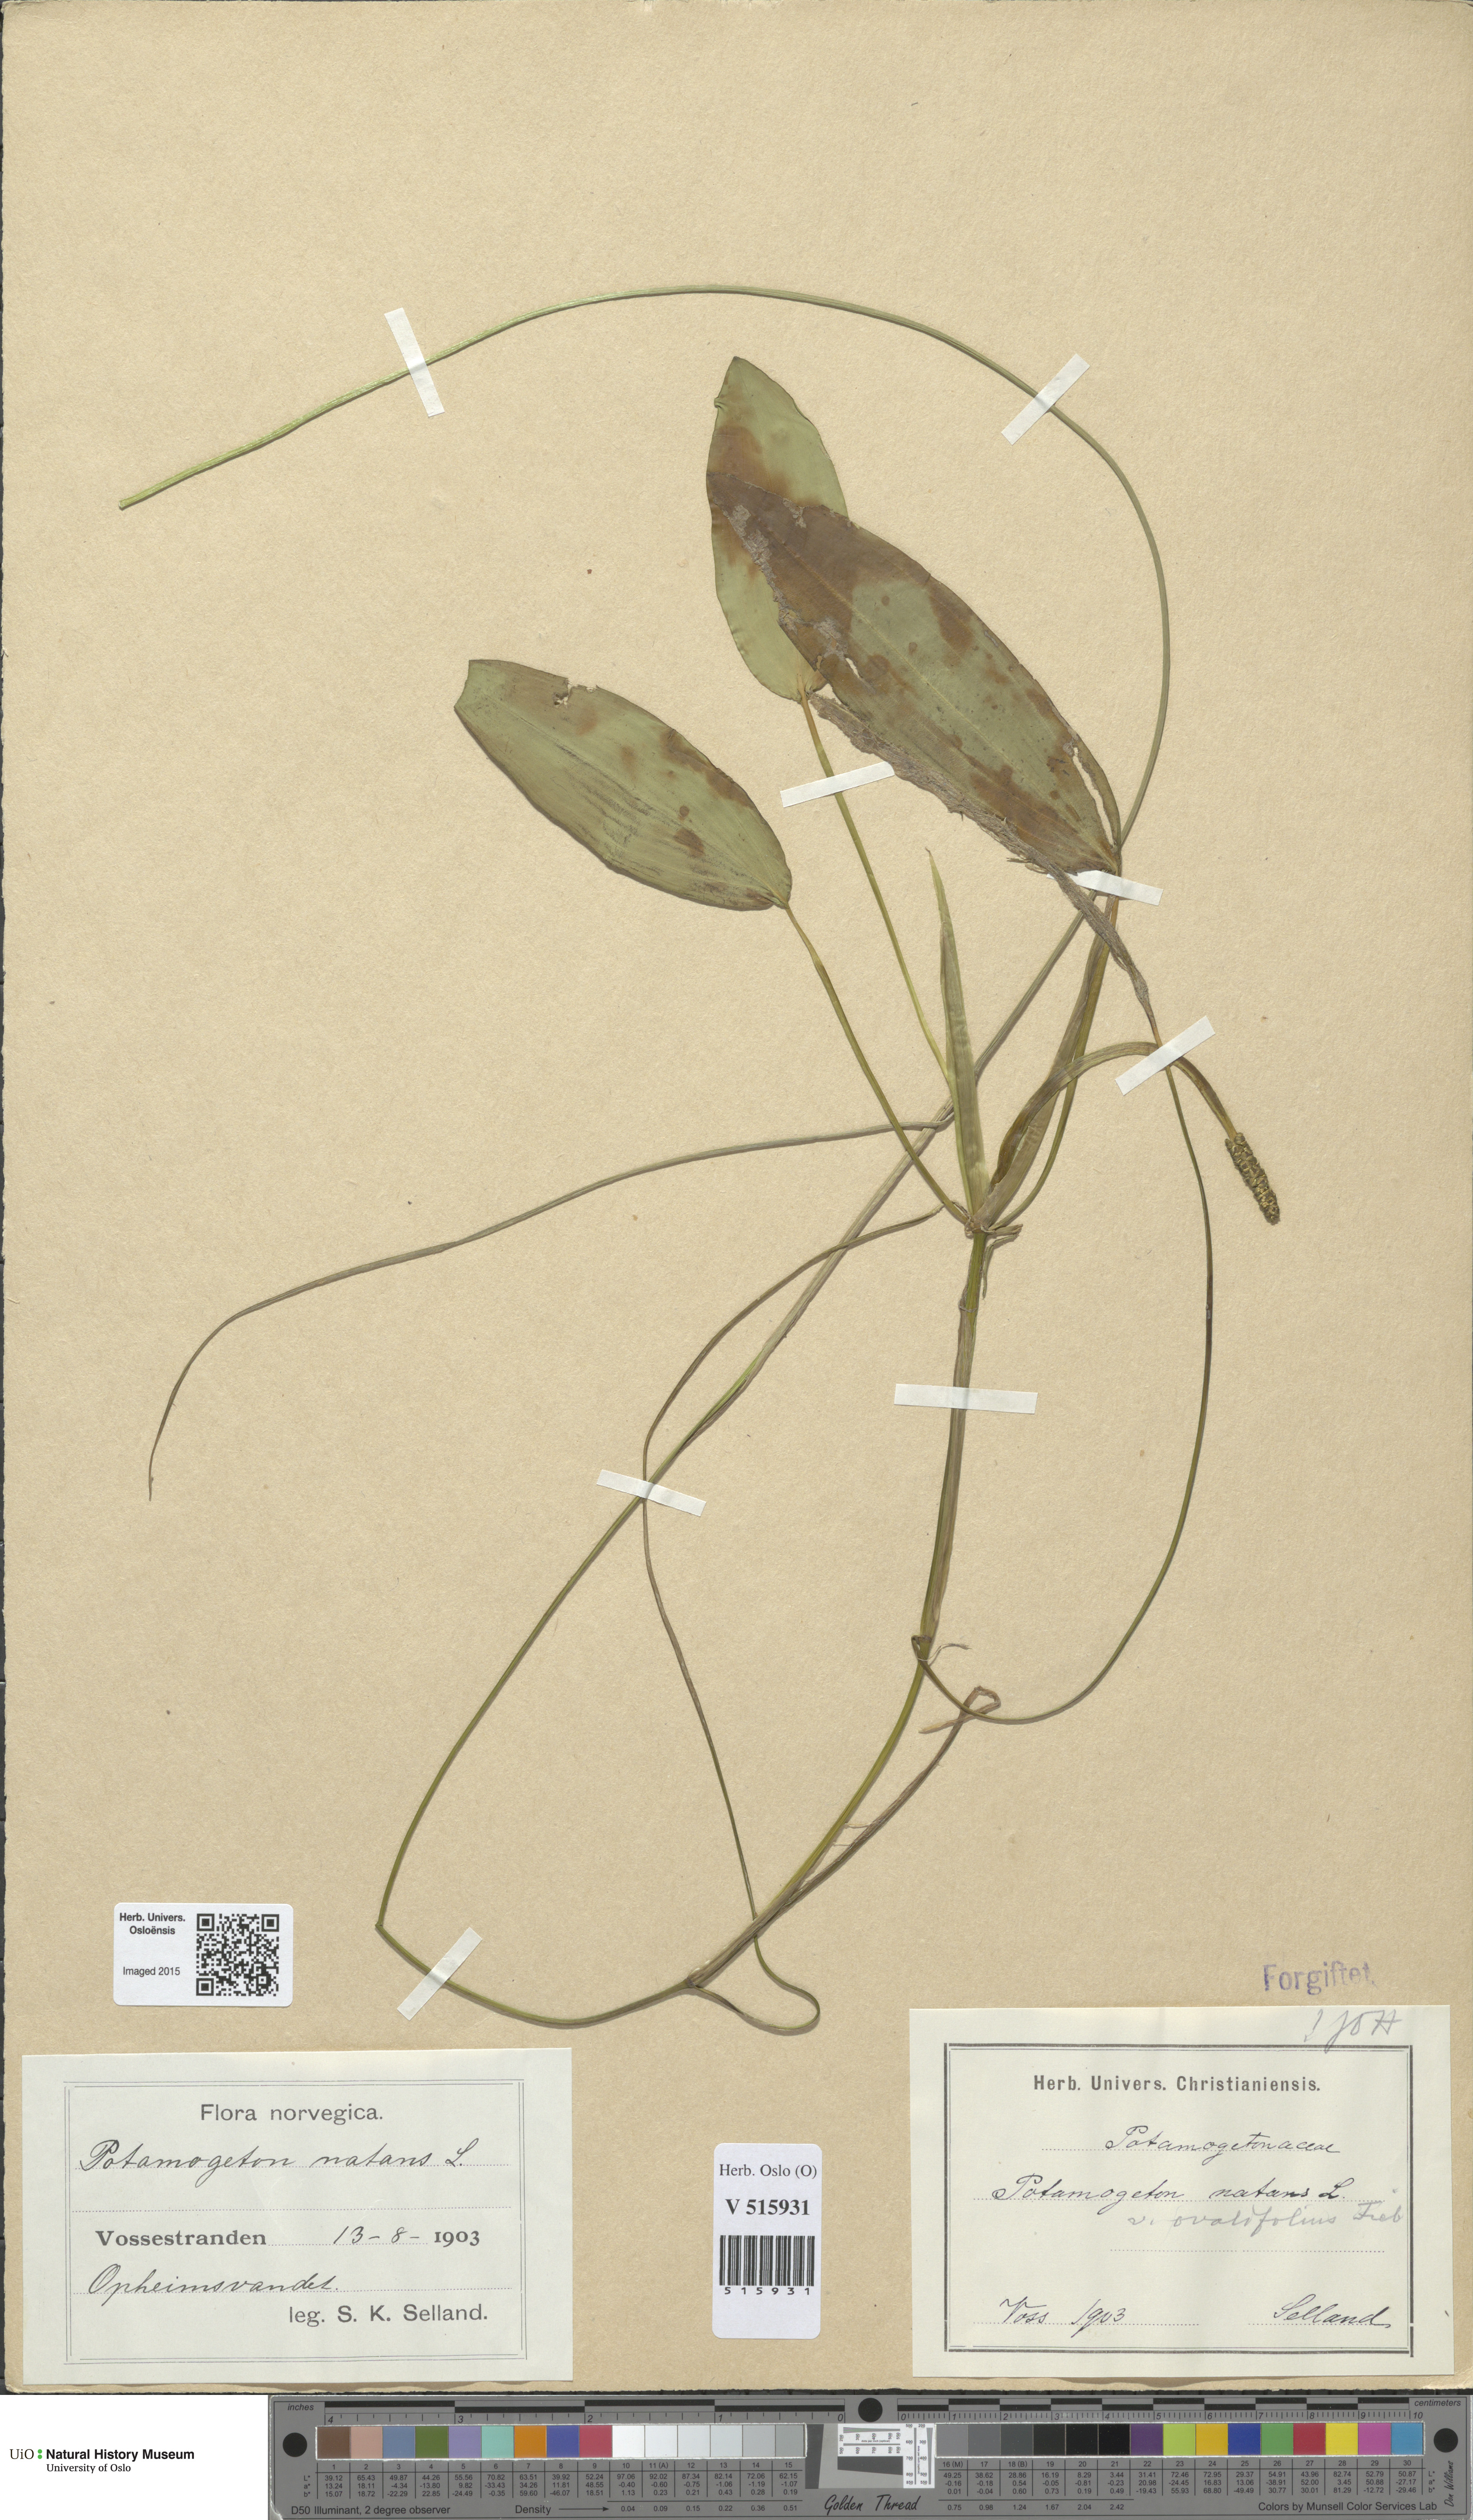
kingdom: Plantae
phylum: Tracheophyta
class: Liliopsida
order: Alismatales
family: Potamogetonaceae
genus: Potamogeton
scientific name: Potamogeton natans
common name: Broad-leaved pondweed
